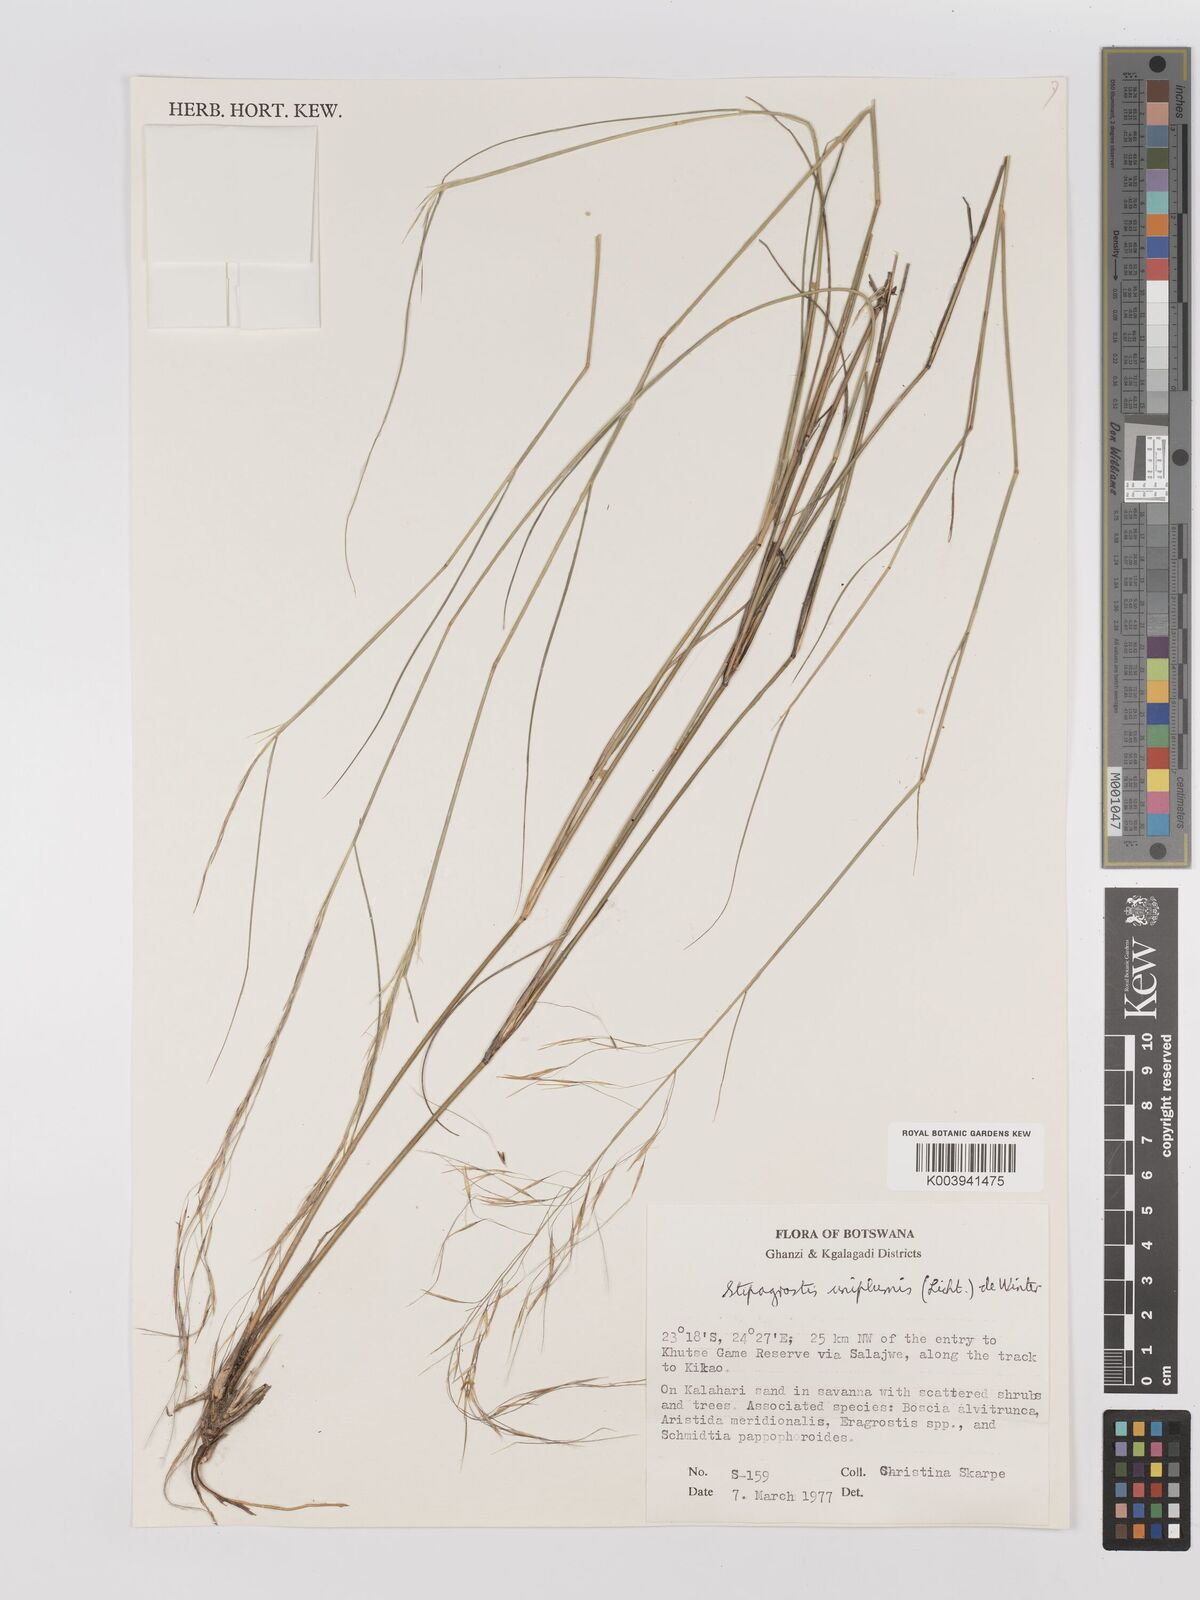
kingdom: Plantae
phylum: Tracheophyta
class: Liliopsida
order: Poales
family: Poaceae
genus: Stipagrostis
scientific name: Stipagrostis uniplumis
